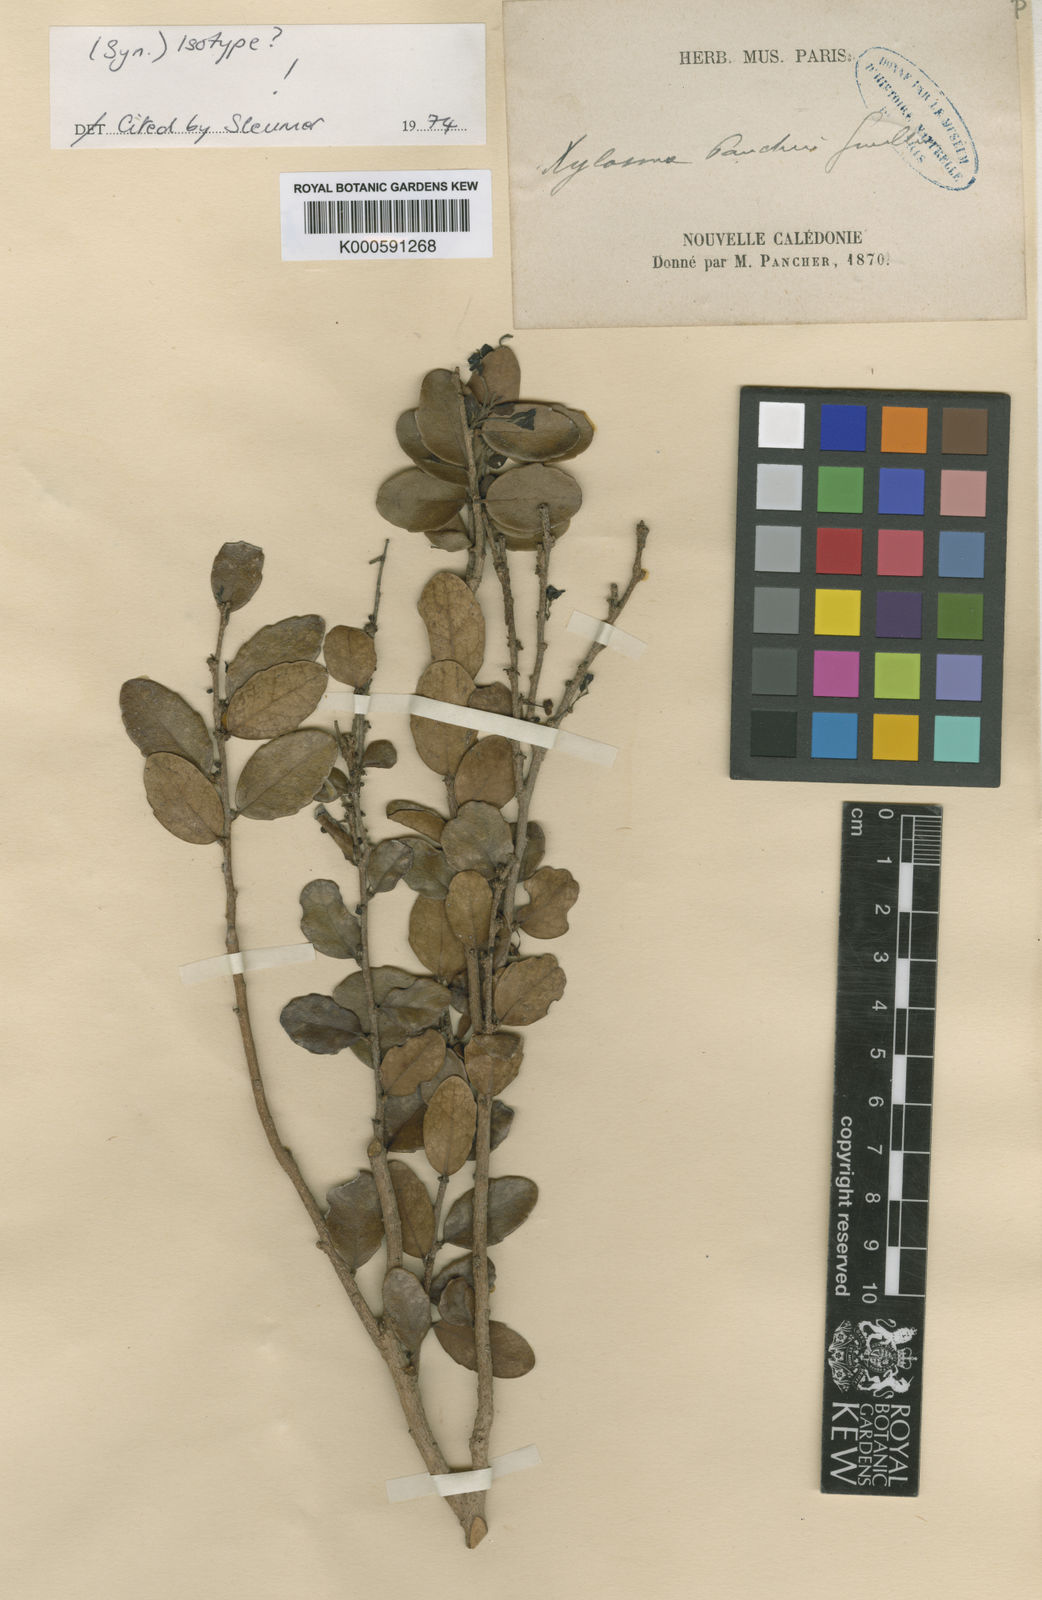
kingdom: Plantae
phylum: Tracheophyta
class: Magnoliopsida
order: Malpighiales
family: Salicaceae
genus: Xylosma
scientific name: Xylosma pancheri
